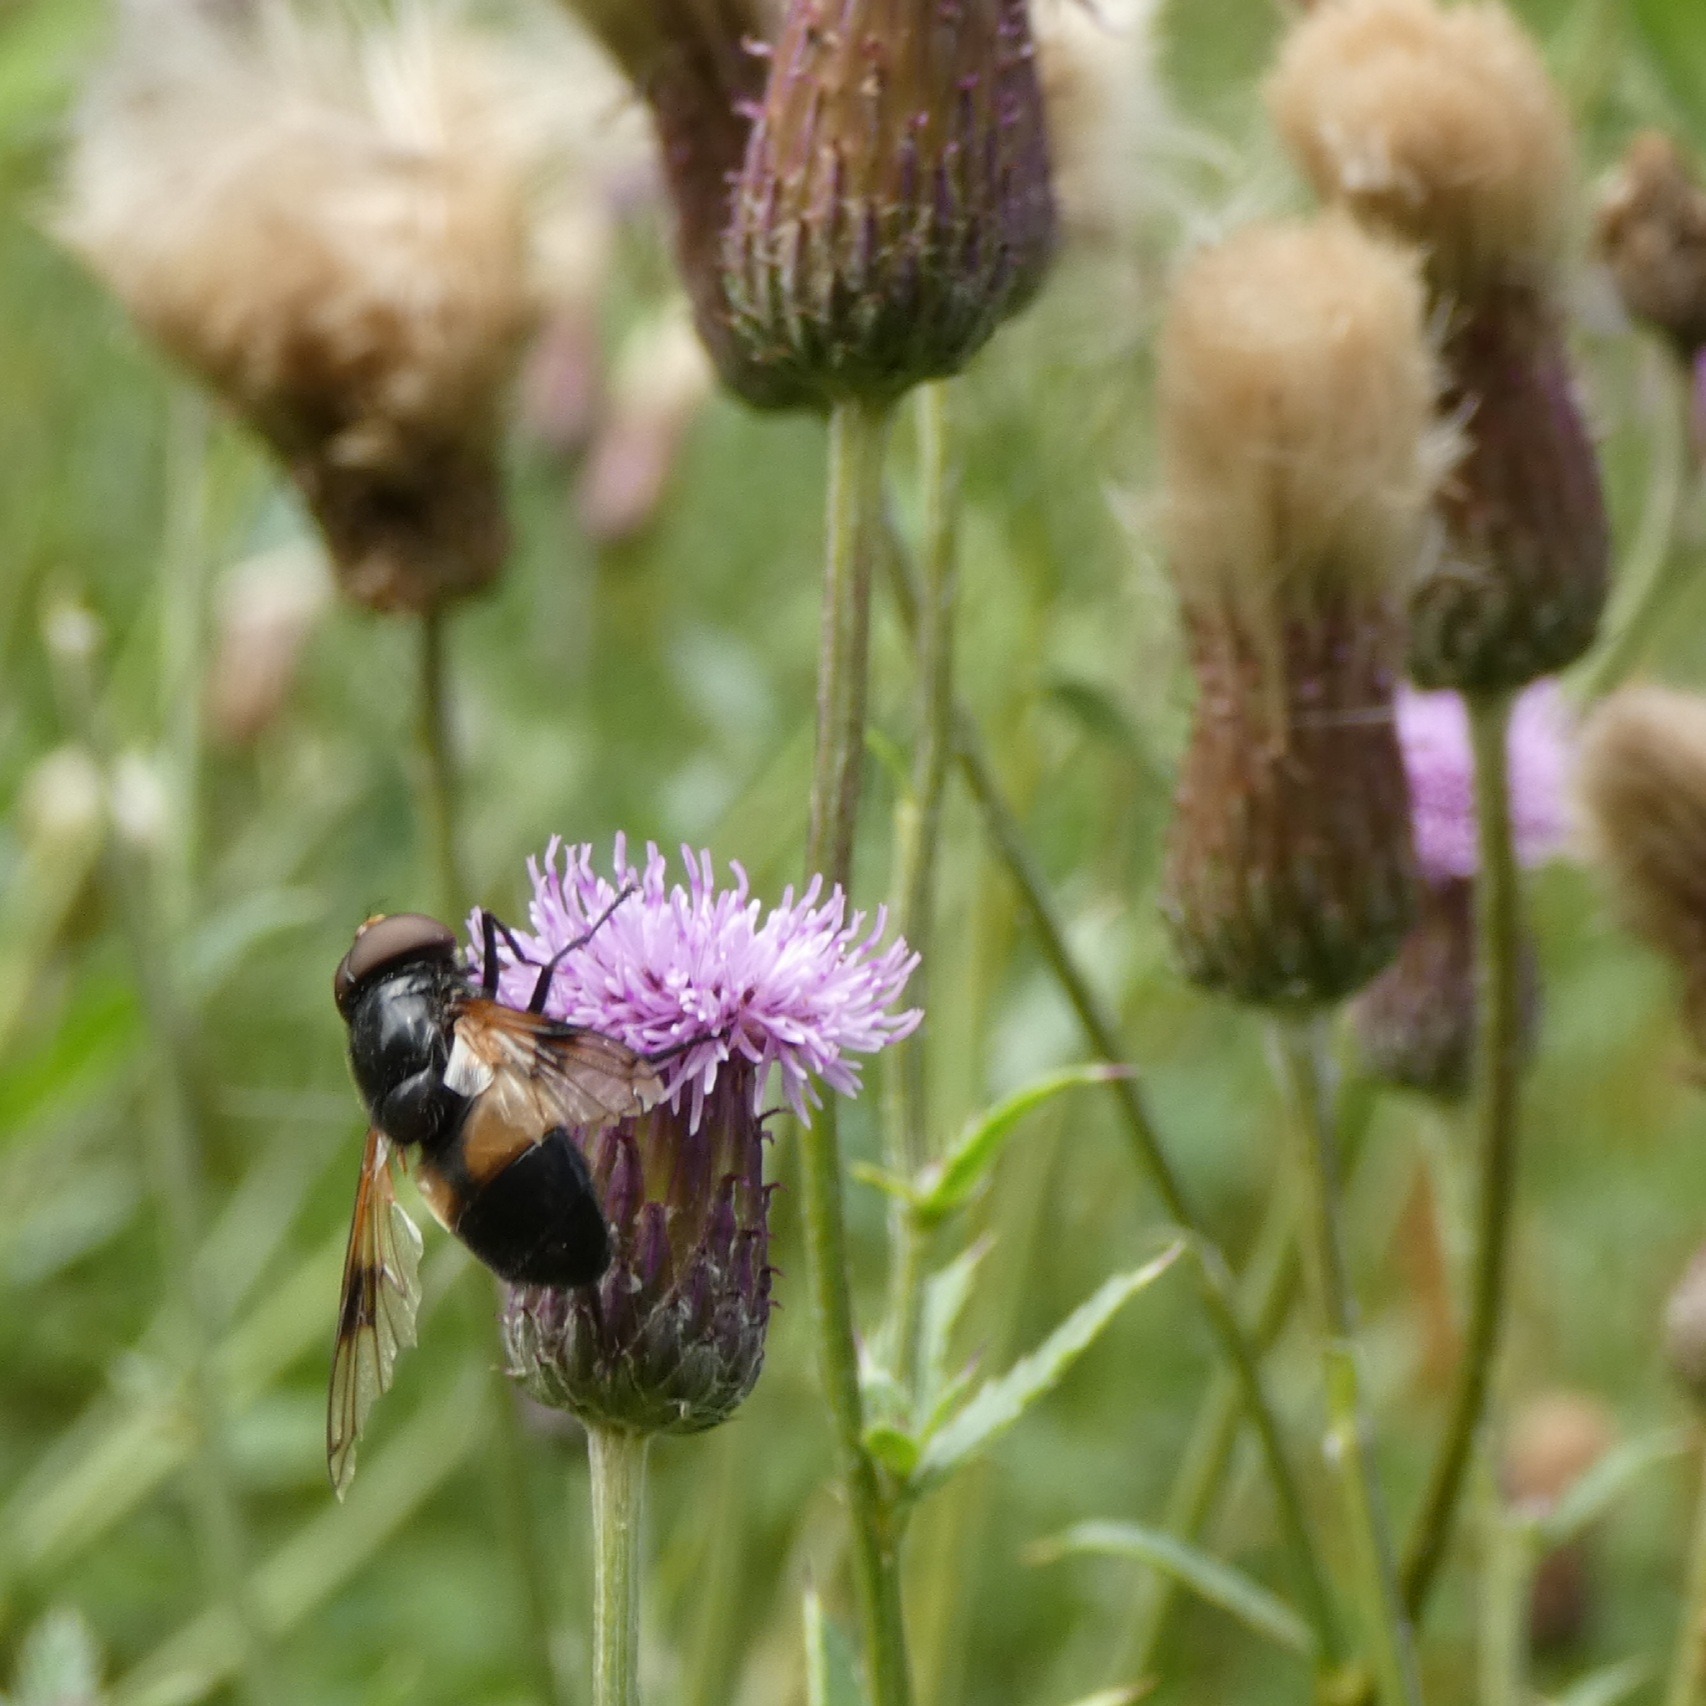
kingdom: Animalia
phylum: Arthropoda
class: Insecta
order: Diptera
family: Syrphidae
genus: Volucella
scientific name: Volucella pellucens
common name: Hvidbåndet humlesvirreflue
